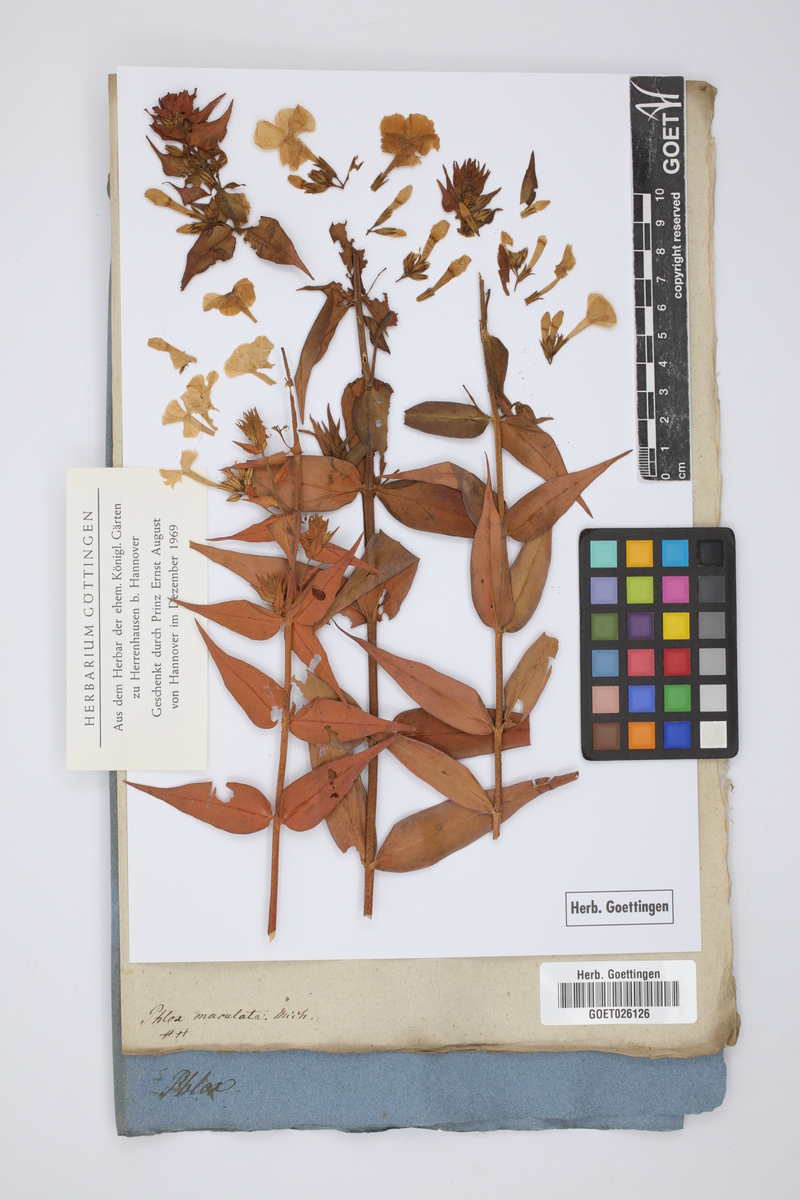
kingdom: Plantae
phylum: Tracheophyta
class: Magnoliopsida
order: Ericales
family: Polemoniaceae
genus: Phlox
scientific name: Phlox maculata
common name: Meadow phlox
